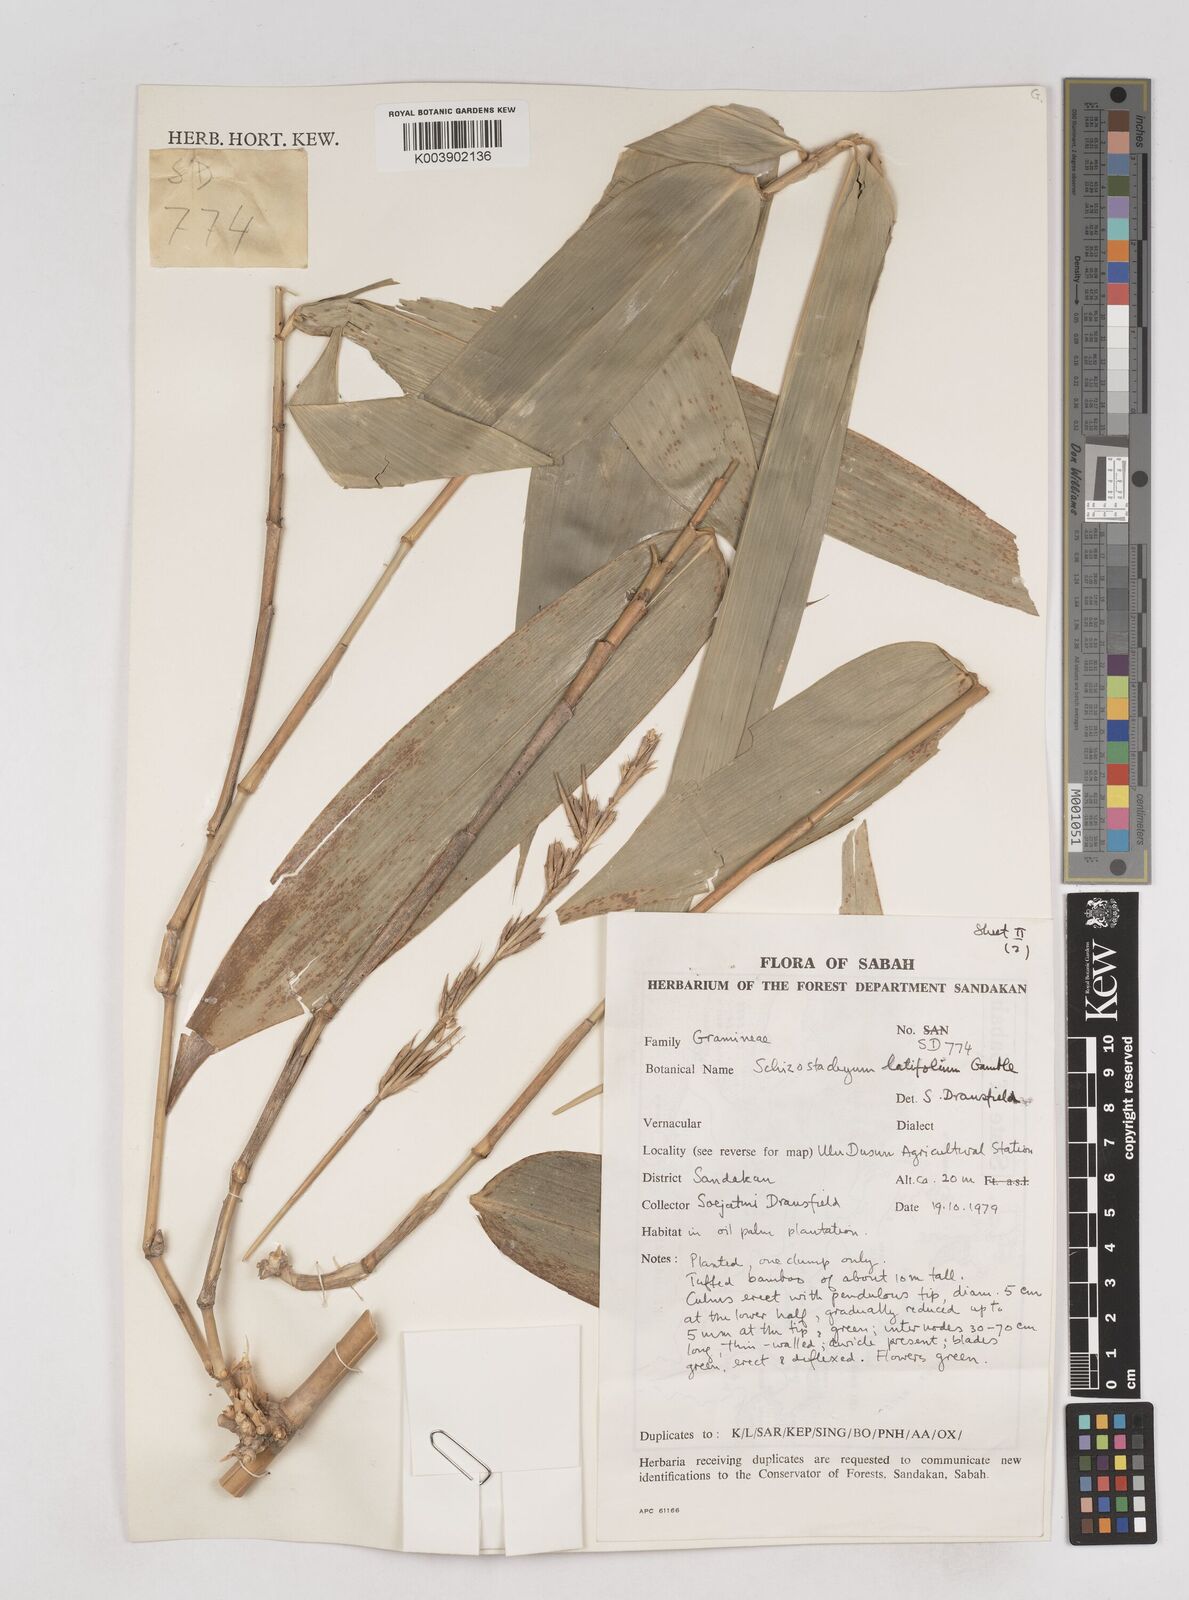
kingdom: Plantae
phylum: Tracheophyta
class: Liliopsida
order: Poales
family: Poaceae
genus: Schizostachyum
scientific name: Schizostachyum
